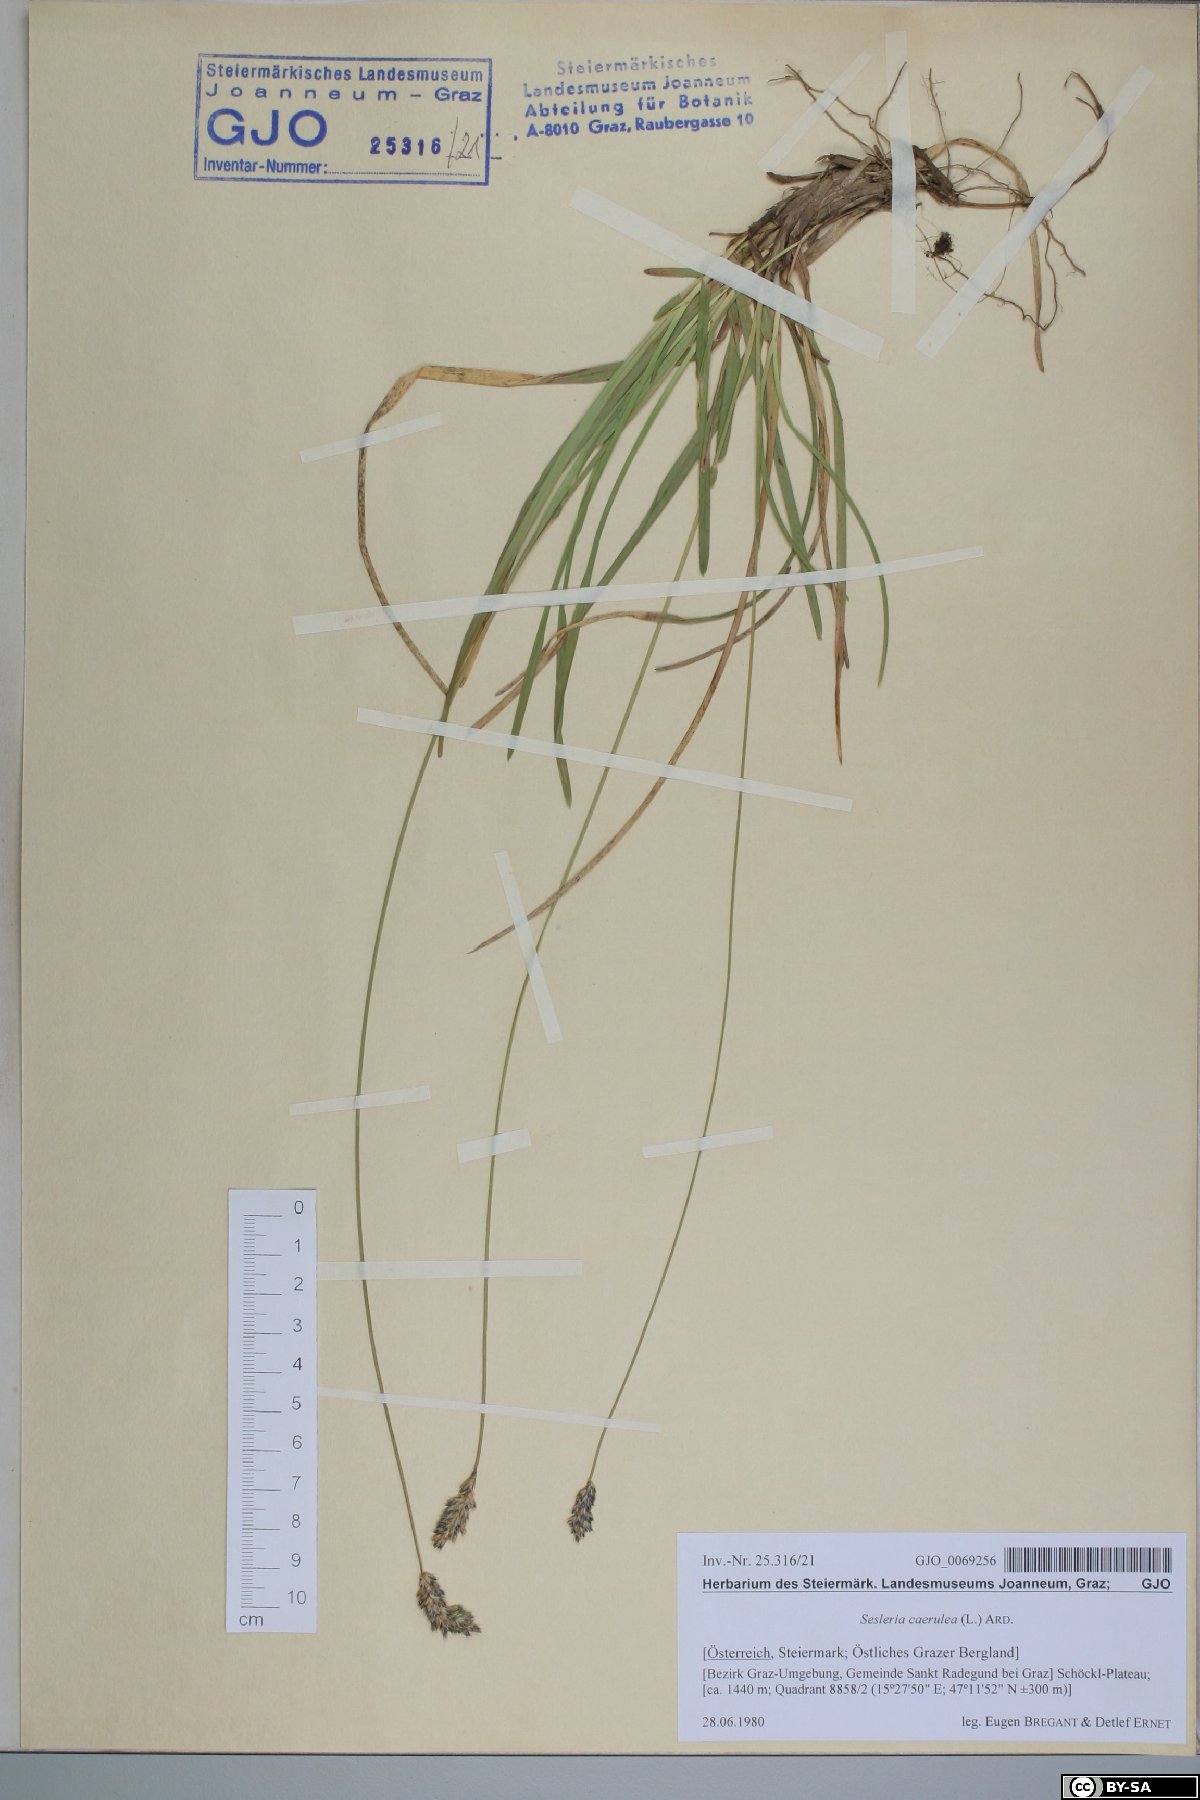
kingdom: Plantae
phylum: Tracheophyta
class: Liliopsida
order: Poales
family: Poaceae
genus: Sesleria
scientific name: Sesleria caerulea
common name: Blue moor-grass
